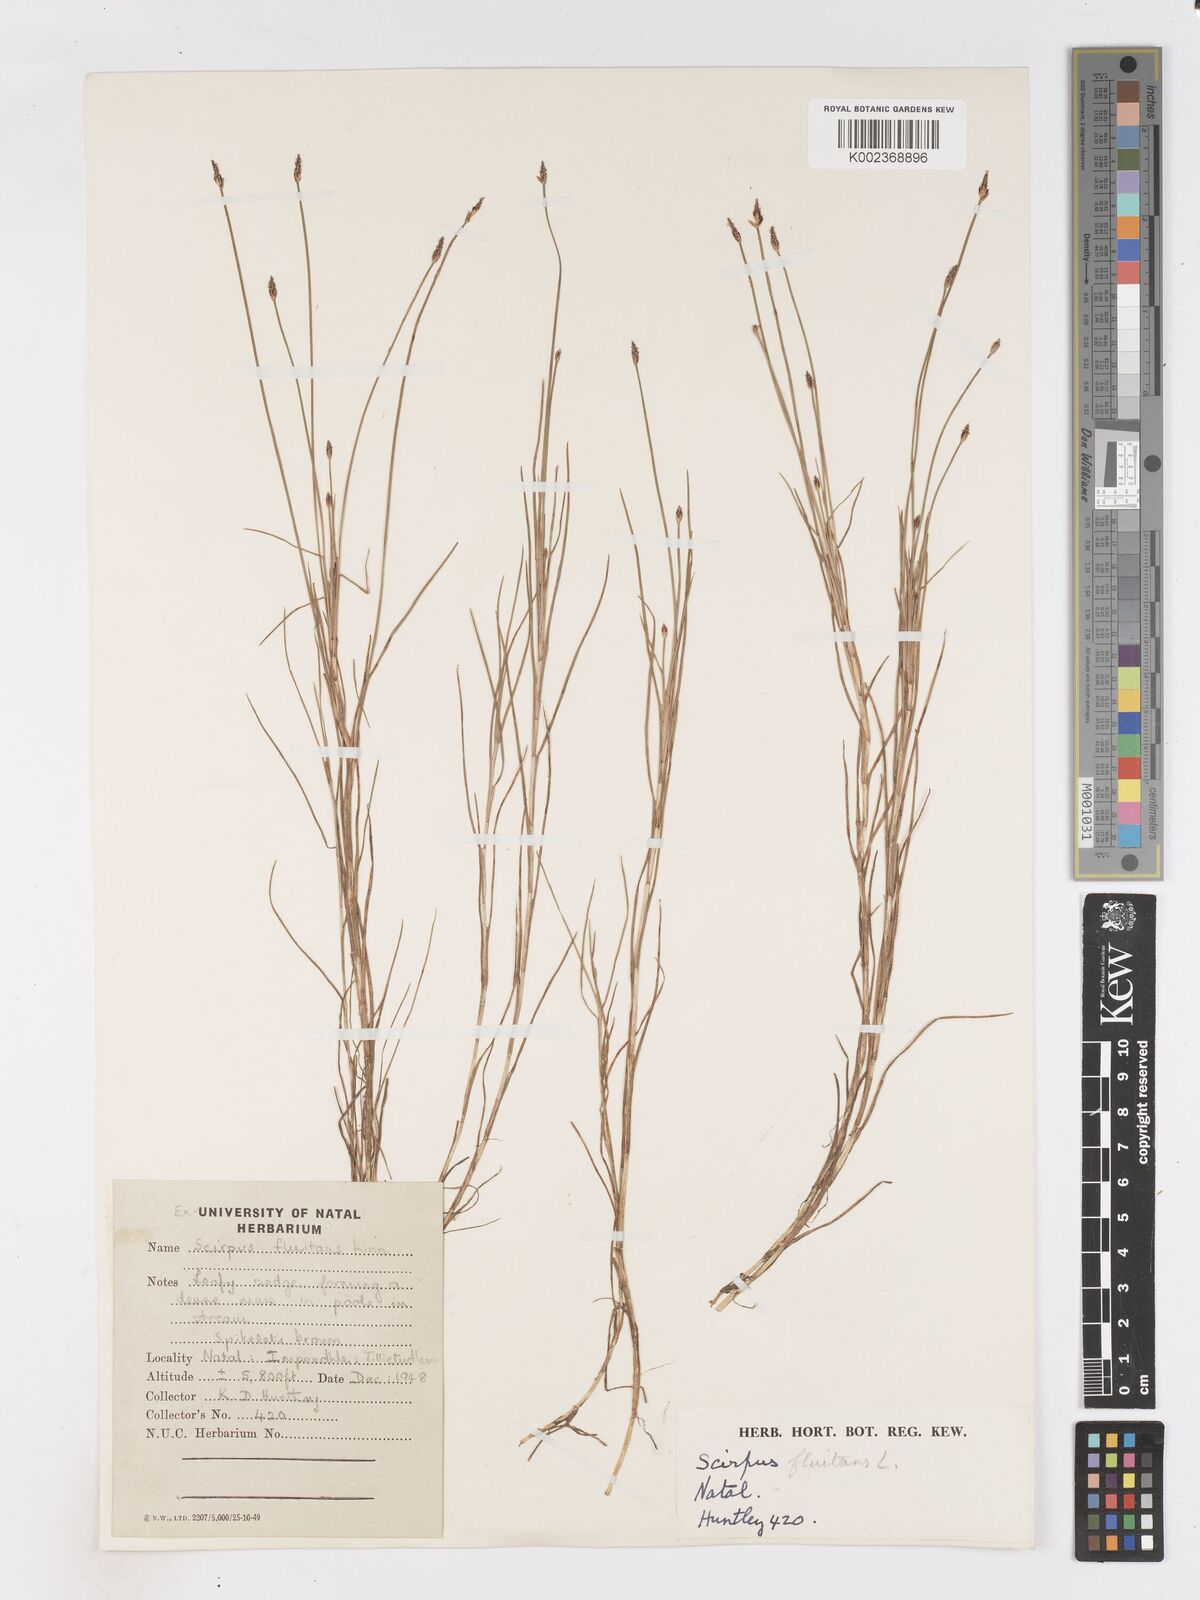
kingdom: Plantae
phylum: Tracheophyta
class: Liliopsida
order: Poales
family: Cyperaceae
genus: Isolepis
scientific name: Isolepis fluitans
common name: Floating club-rush
